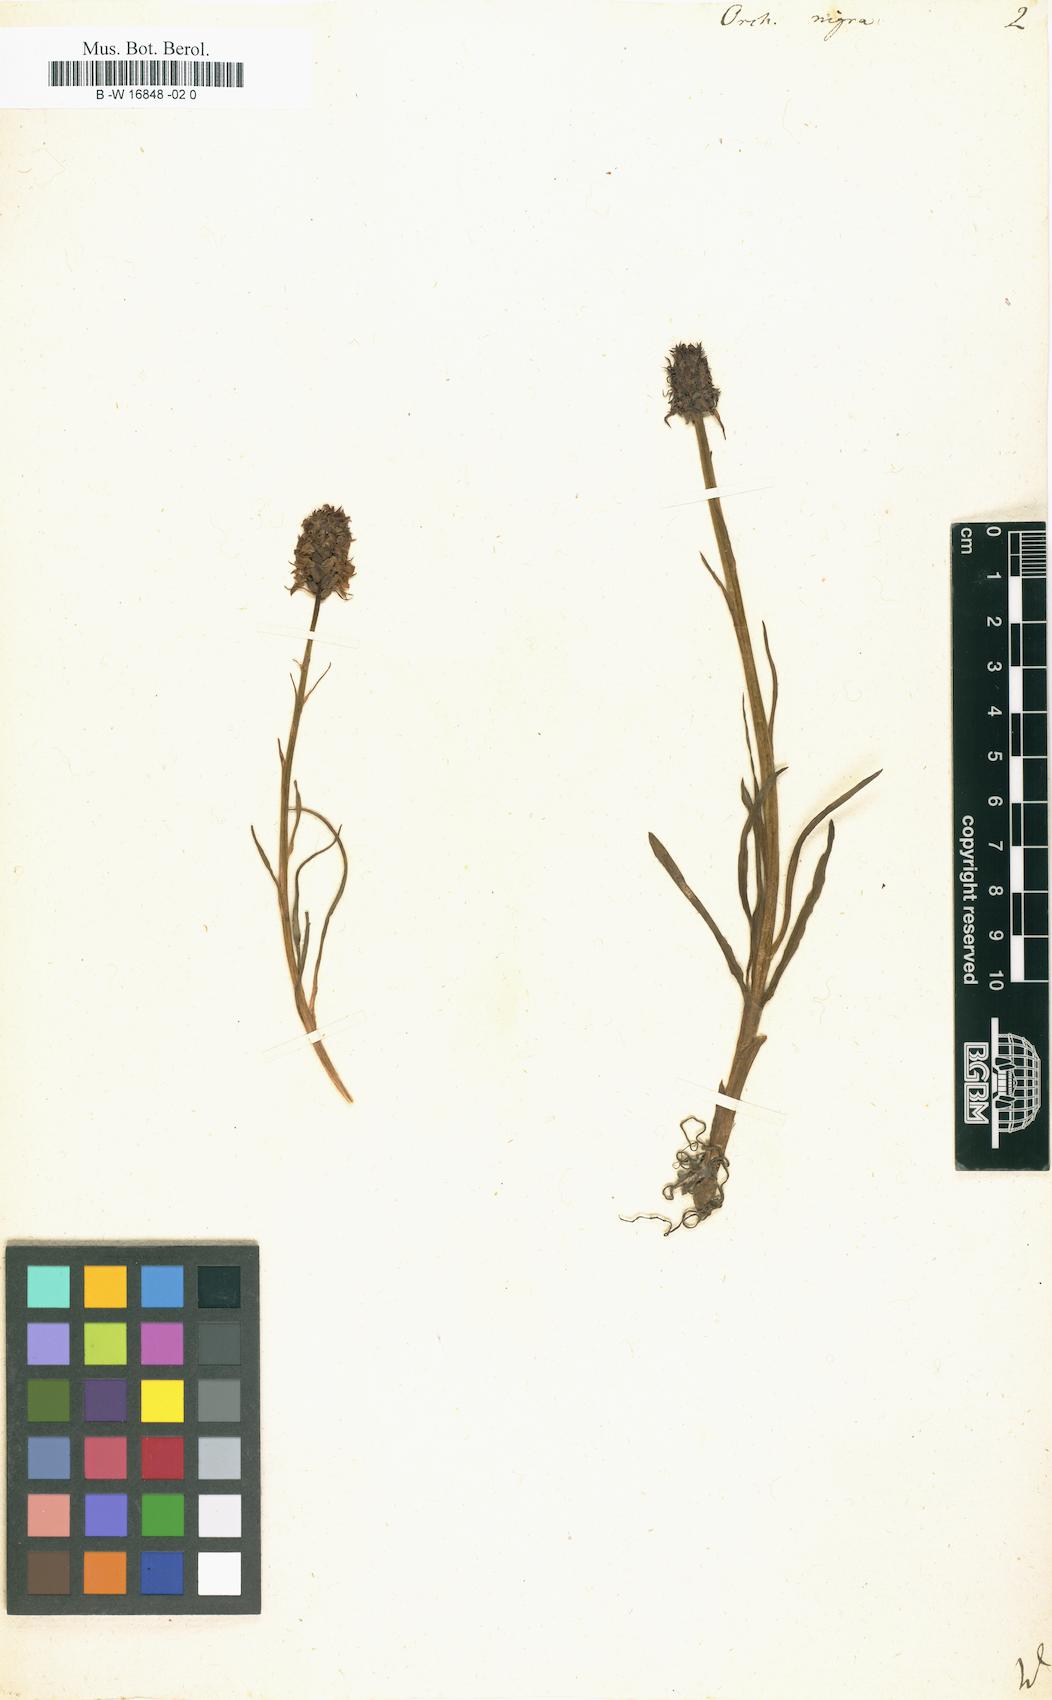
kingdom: Plantae
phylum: Tracheophyta
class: Liliopsida
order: Asparagales
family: Orchidaceae
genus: Gymnadenia
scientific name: Gymnadenia nigra
